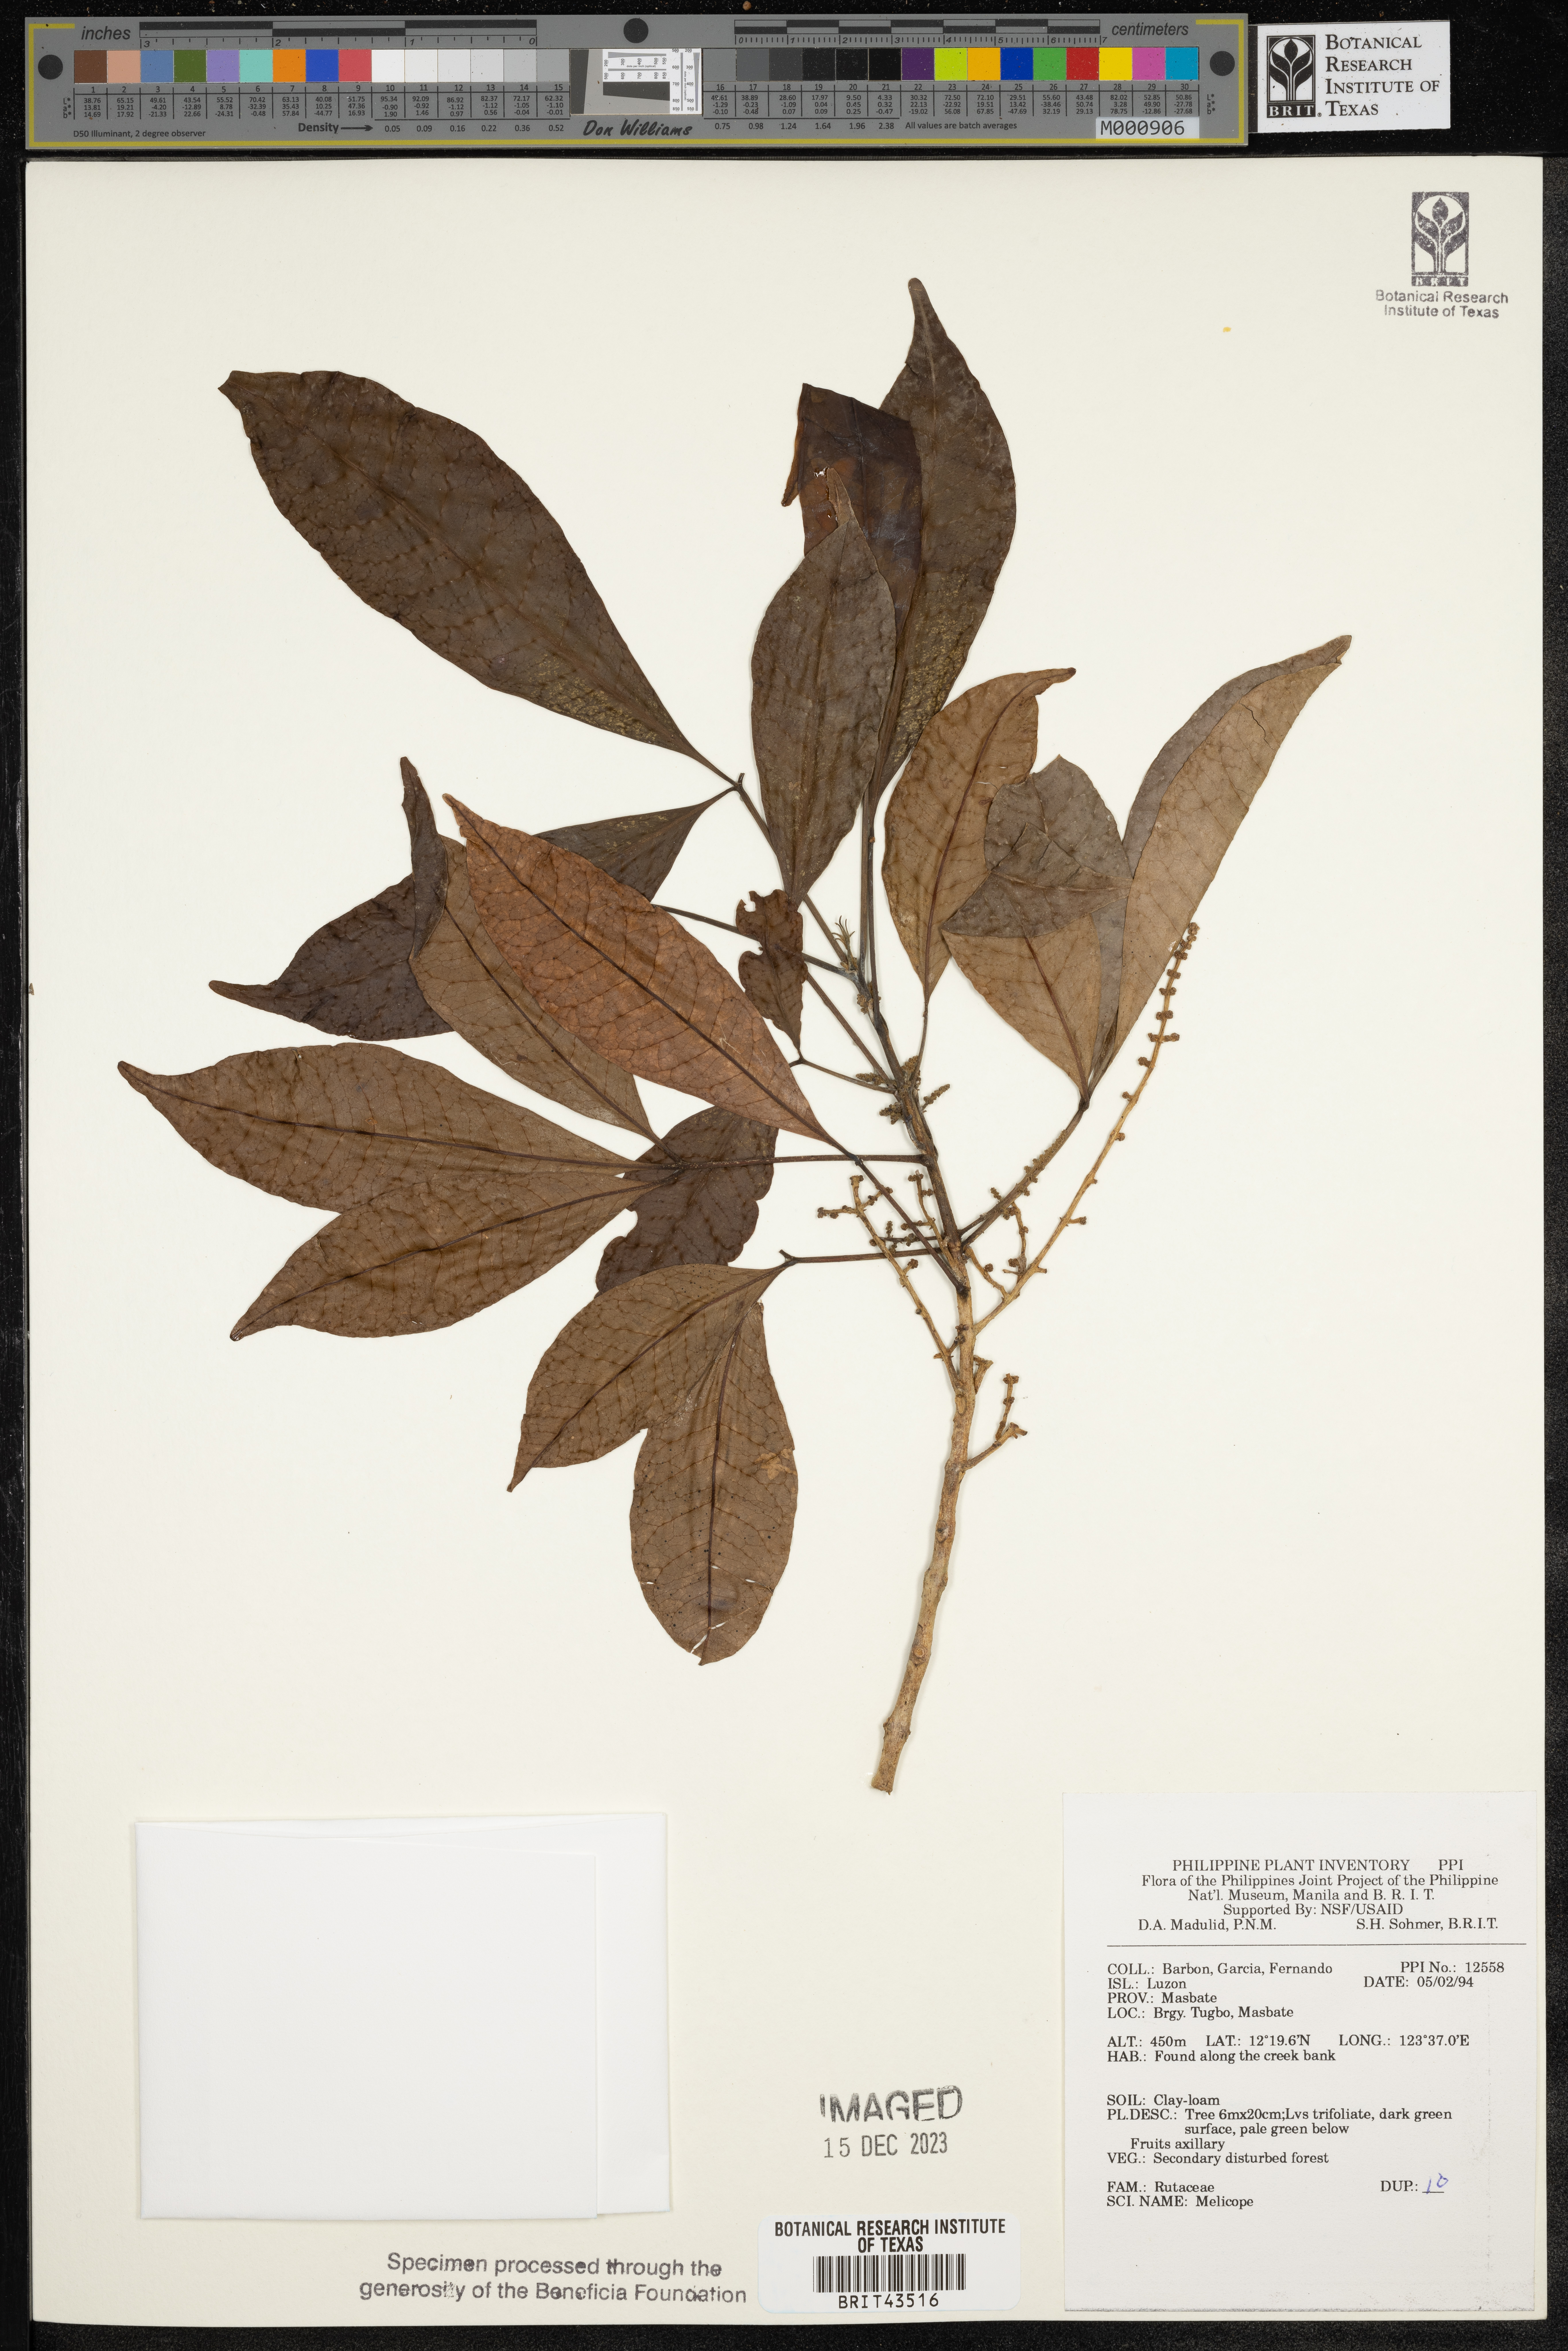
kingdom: Plantae
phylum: Tracheophyta
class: Magnoliopsida
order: Sapindales
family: Rutaceae
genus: Melicope
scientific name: Melicope
